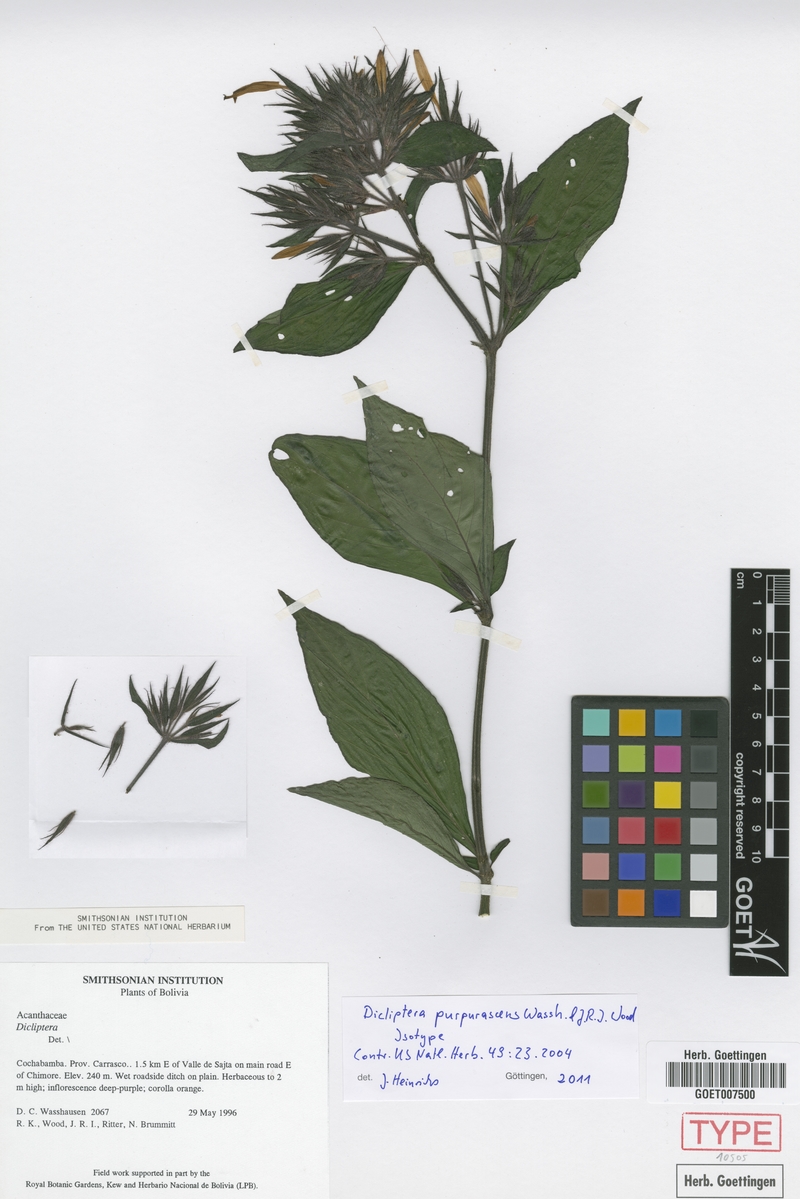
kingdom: Plantae
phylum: Tracheophyta
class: Magnoliopsida
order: Lamiales
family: Acanthaceae
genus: Dicliptera
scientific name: Dicliptera purpurascens
